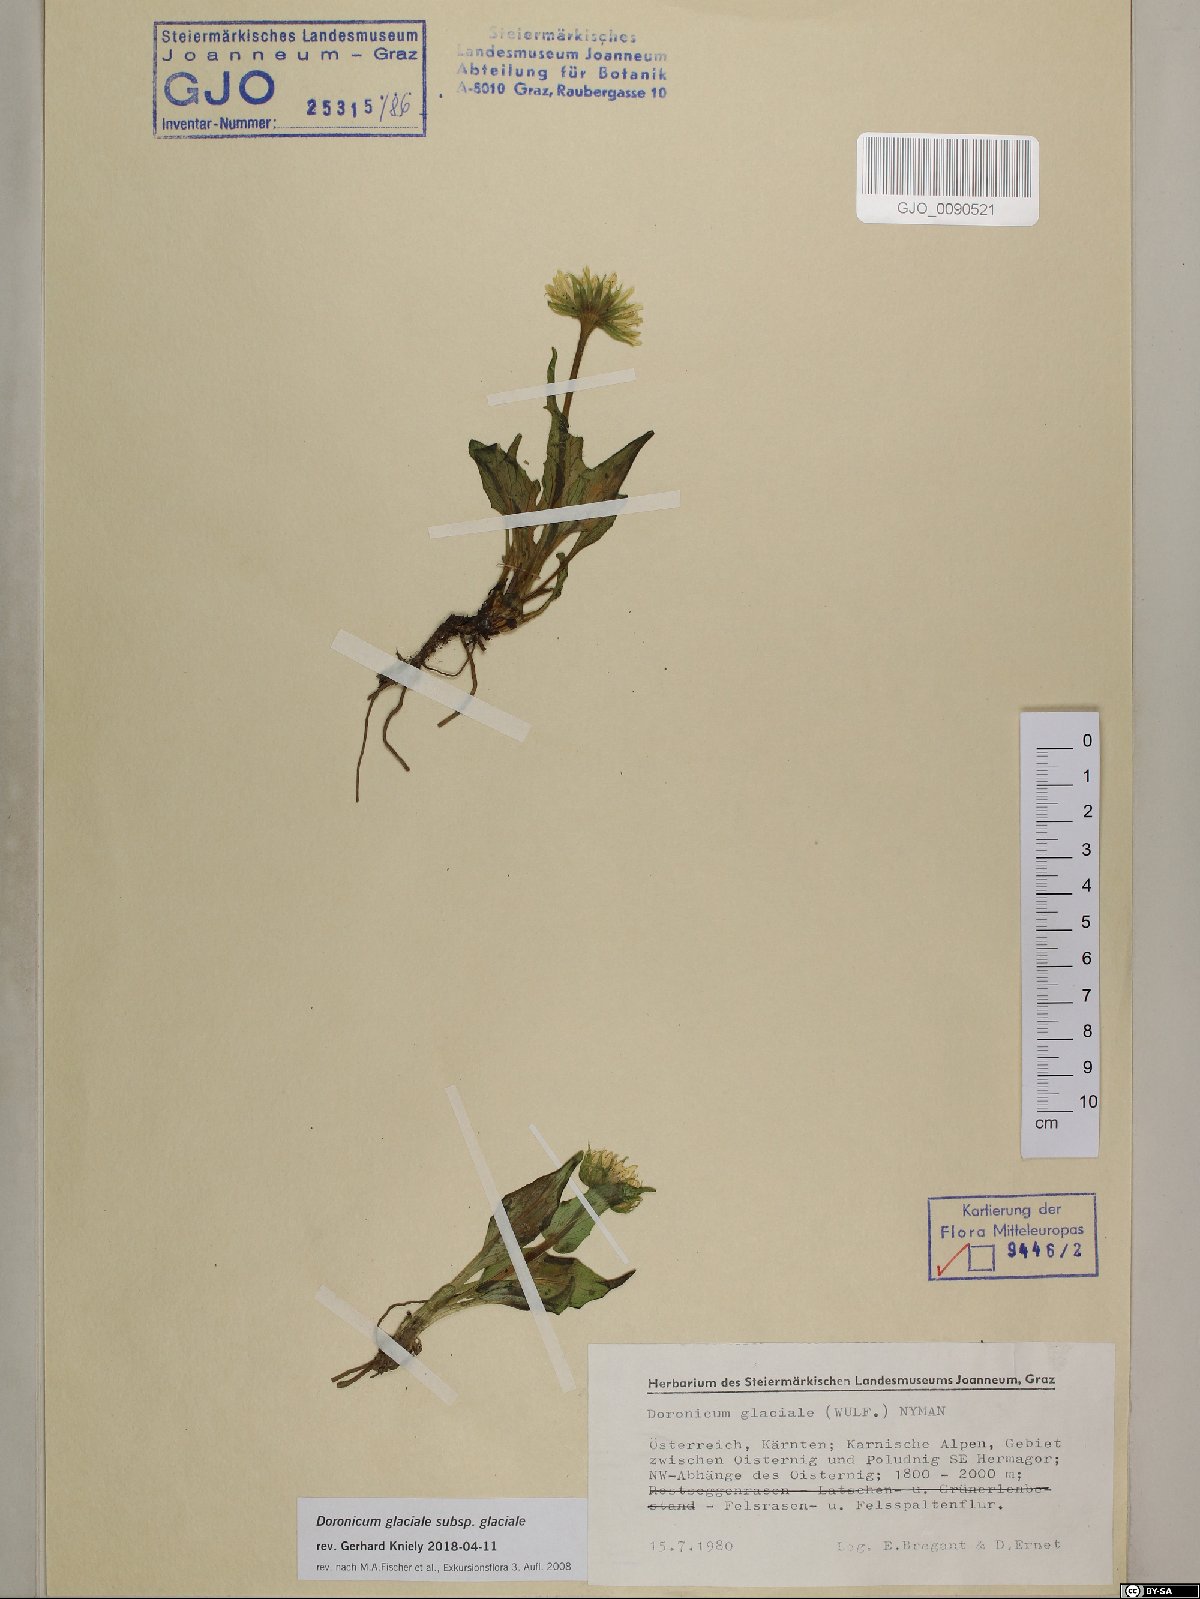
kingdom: Plantae
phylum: Tracheophyta
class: Magnoliopsida
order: Asterales
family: Asteraceae
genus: Doronicum
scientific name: Doronicum glaciale
